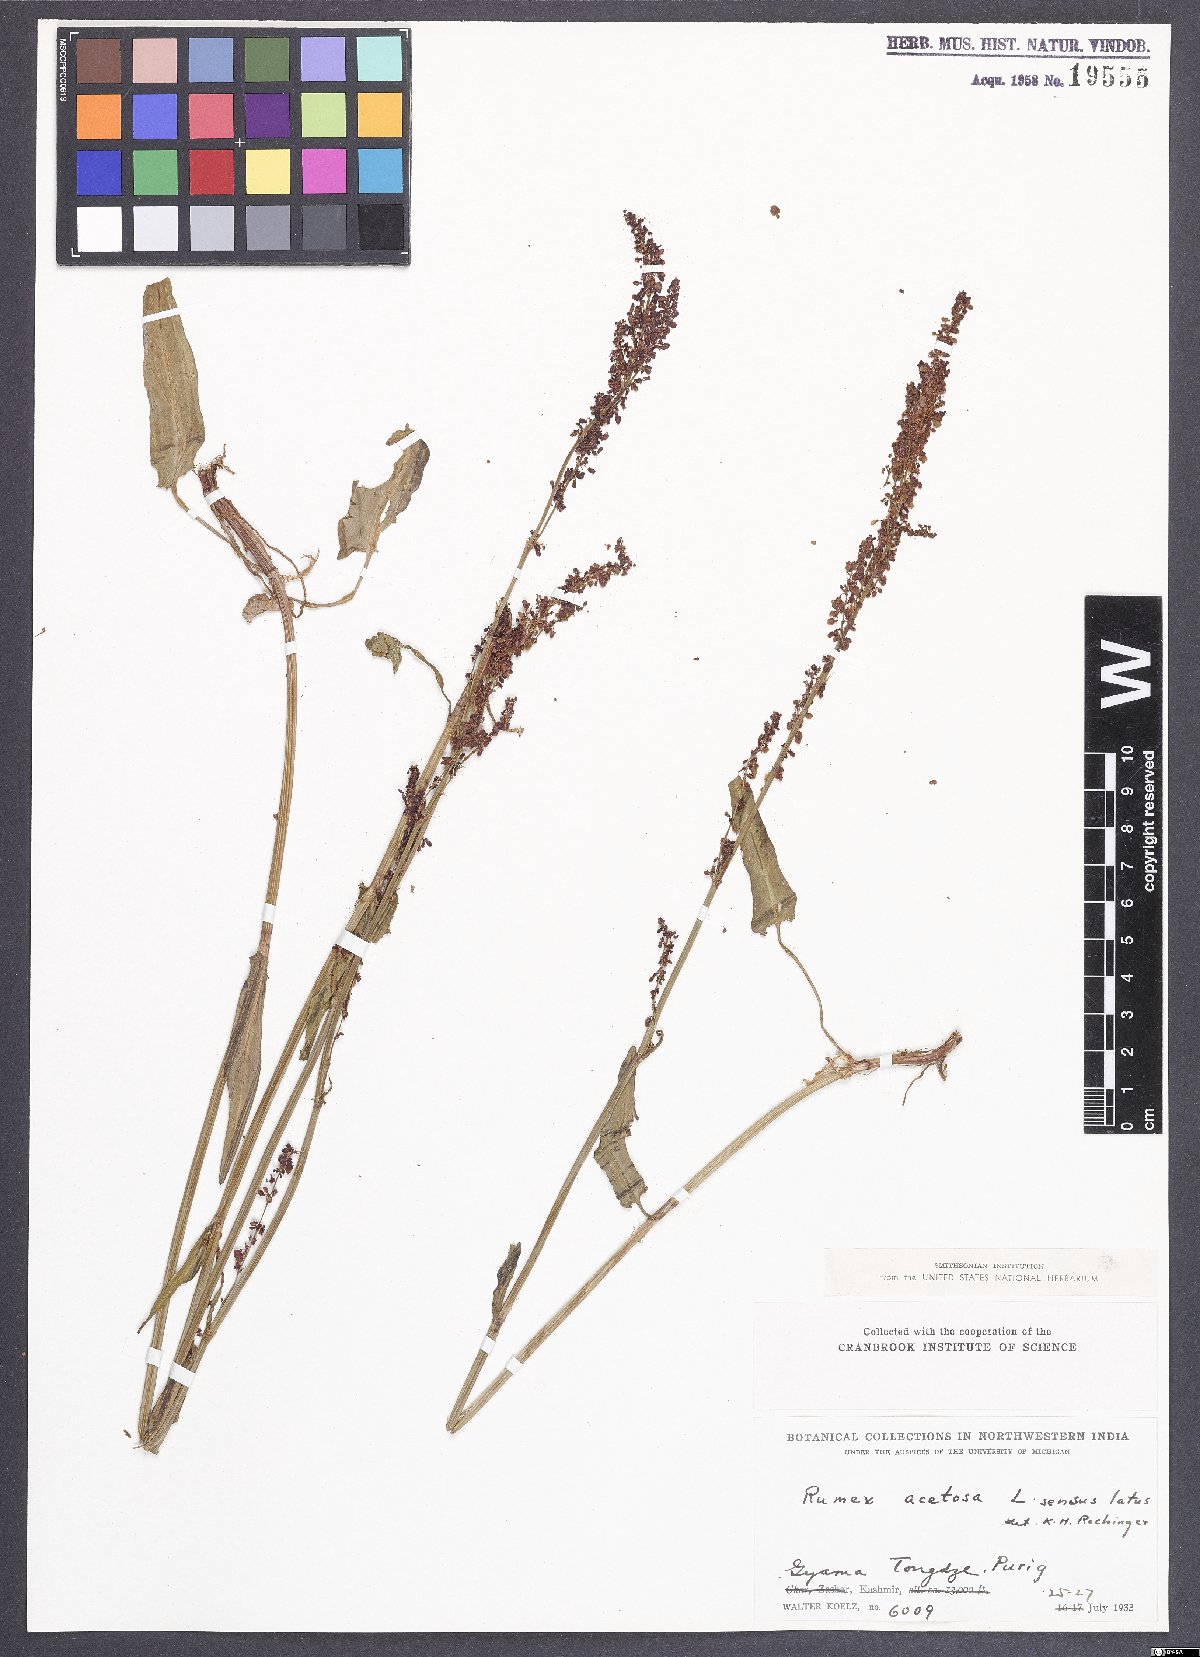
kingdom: Plantae
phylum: Tracheophyta
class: Magnoliopsida
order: Caryophyllales
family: Polygonaceae
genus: Rumex
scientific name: Rumex acetosa
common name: Garden sorrel
